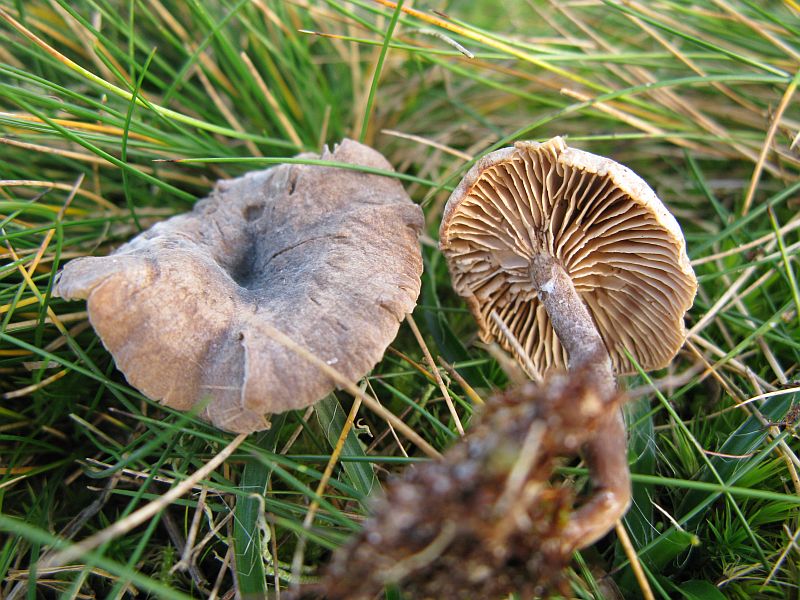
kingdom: Fungi
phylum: Basidiomycota
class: Agaricomycetes
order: Agaricales
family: Entolomataceae
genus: Clitopilus
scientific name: Clitopilus caelatus
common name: gråbrun troldhat
